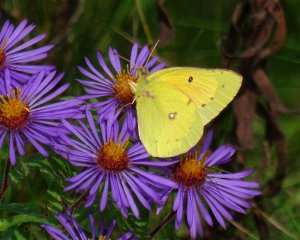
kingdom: Animalia
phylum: Arthropoda
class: Insecta
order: Lepidoptera
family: Pieridae
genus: Colias
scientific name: Colias eurytheme
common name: Orange Sulphur
